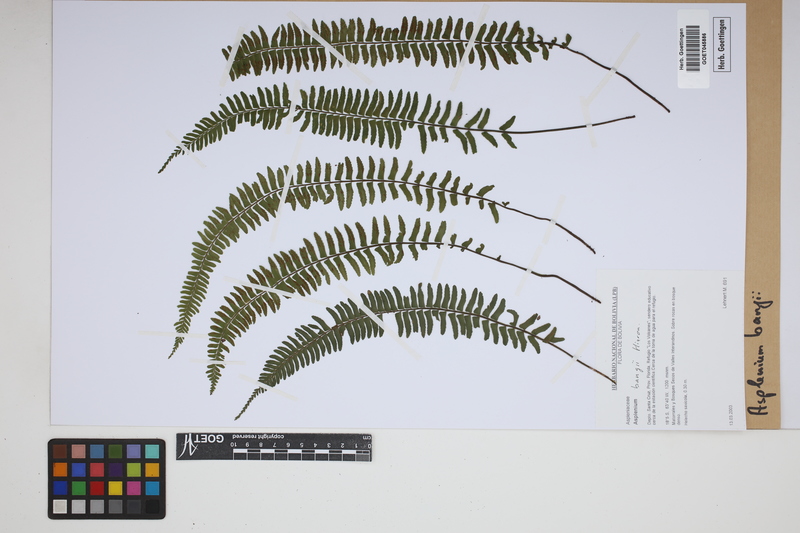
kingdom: Plantae
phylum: Tracheophyta
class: Polypodiopsida
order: Polypodiales
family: Aspleniaceae
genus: Asplenium
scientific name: Asplenium bangii
